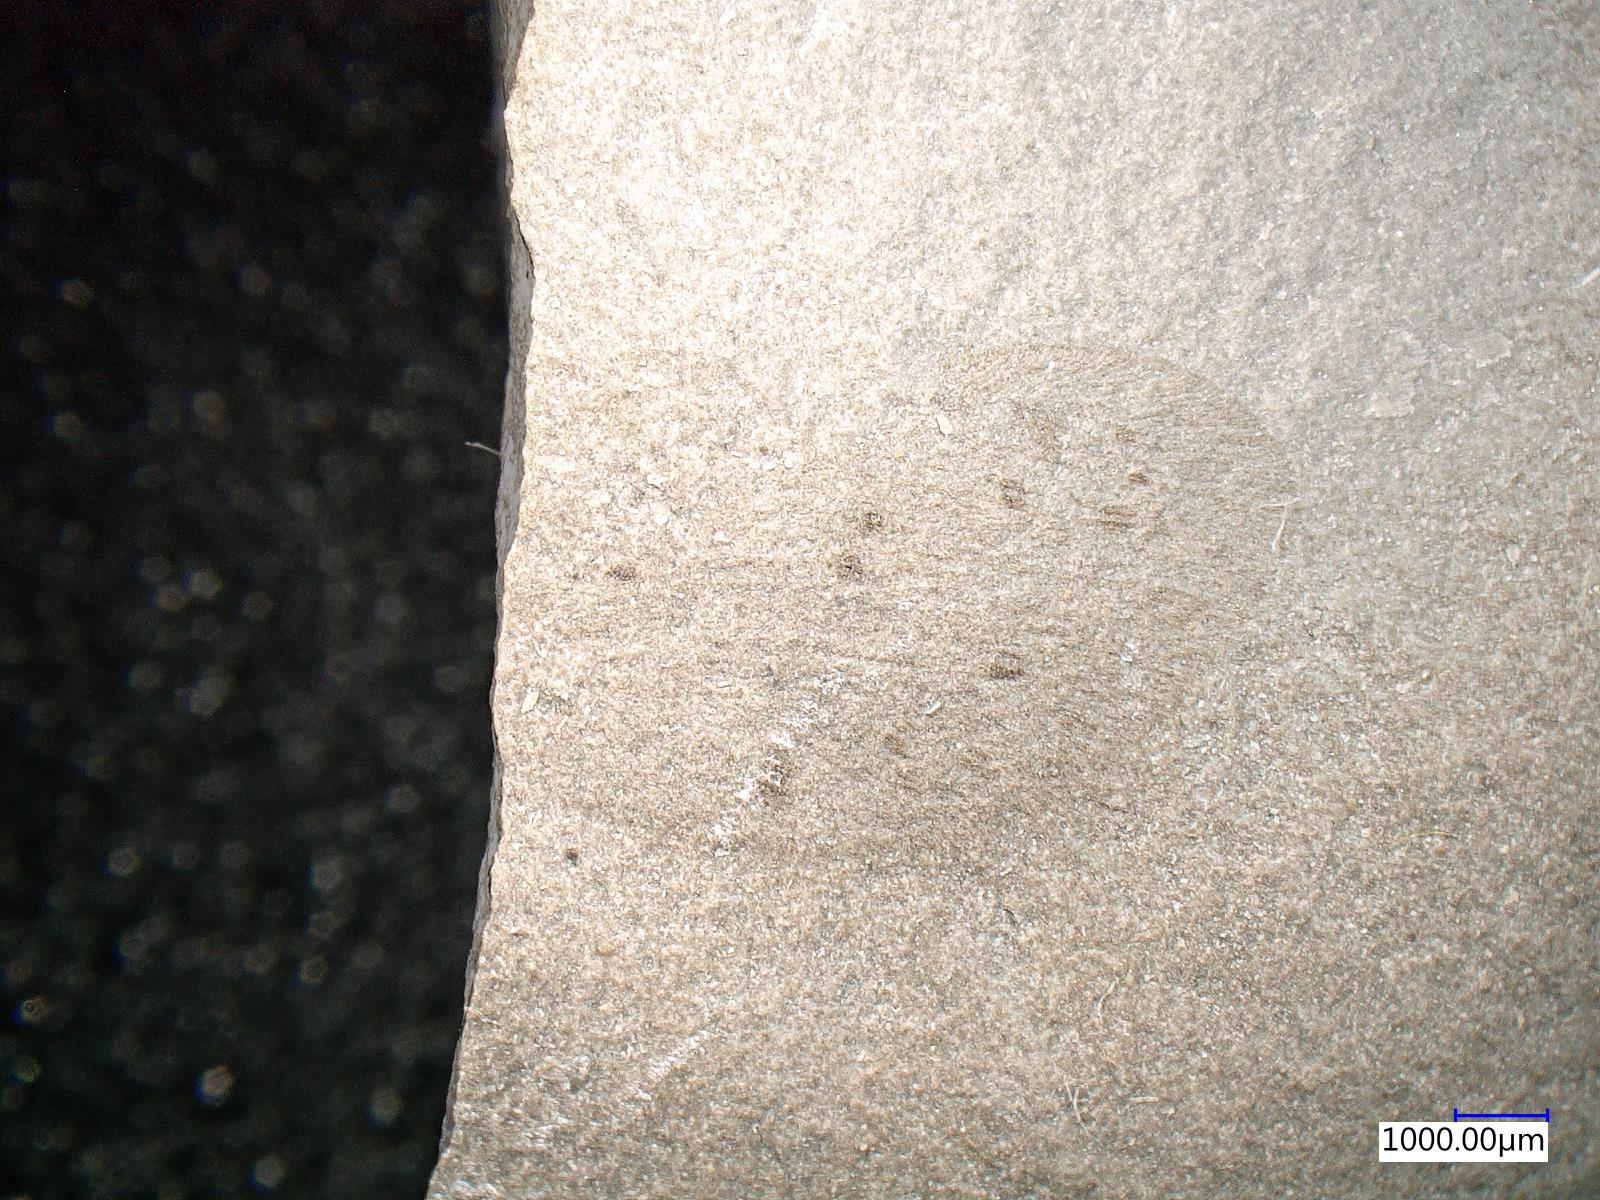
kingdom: Animalia
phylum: Arthropoda
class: Insecta
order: Neuroptera
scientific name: Neuroptera
